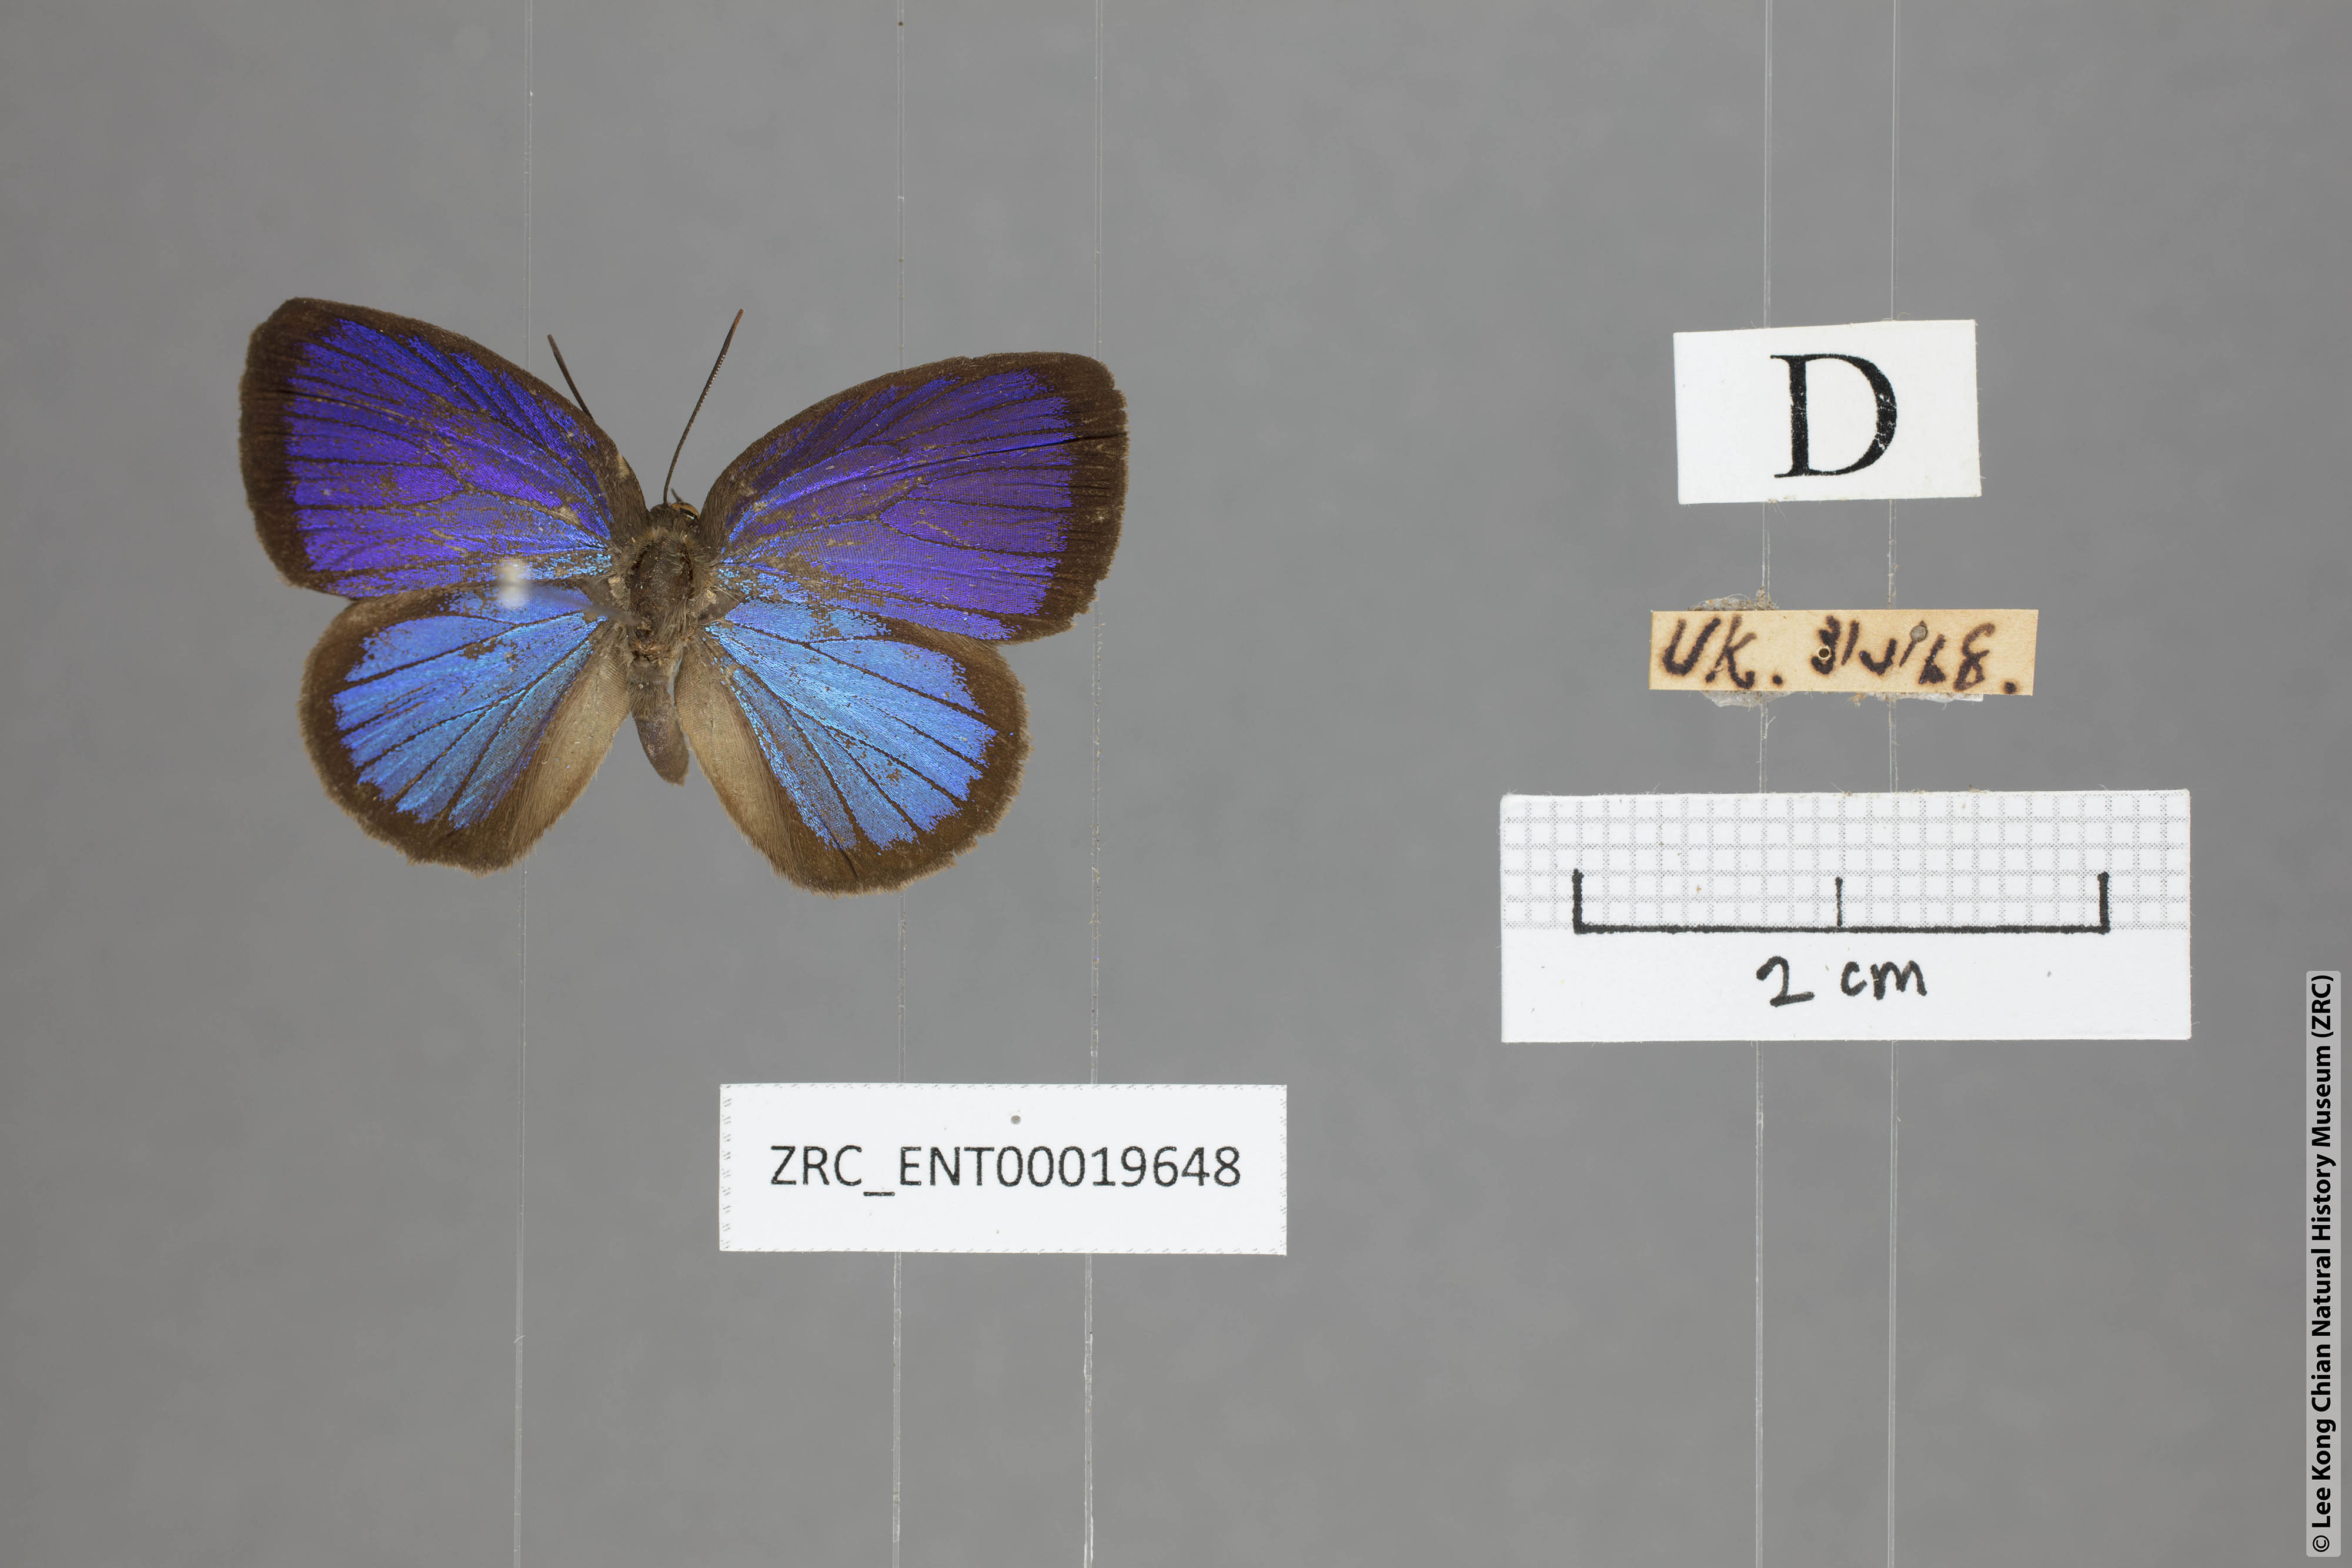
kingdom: Animalia
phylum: Arthropoda
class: Insecta
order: Lepidoptera
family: Lycaenidae
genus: Arhopala
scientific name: Arhopala metamuta
